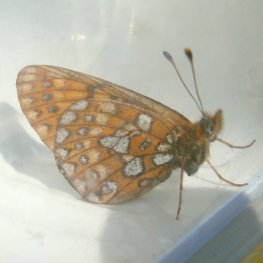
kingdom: Animalia
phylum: Arthropoda
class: Insecta
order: Lepidoptera
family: Nymphalidae
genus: Boloria
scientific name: Boloria eunomia
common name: Bog Fritillary
